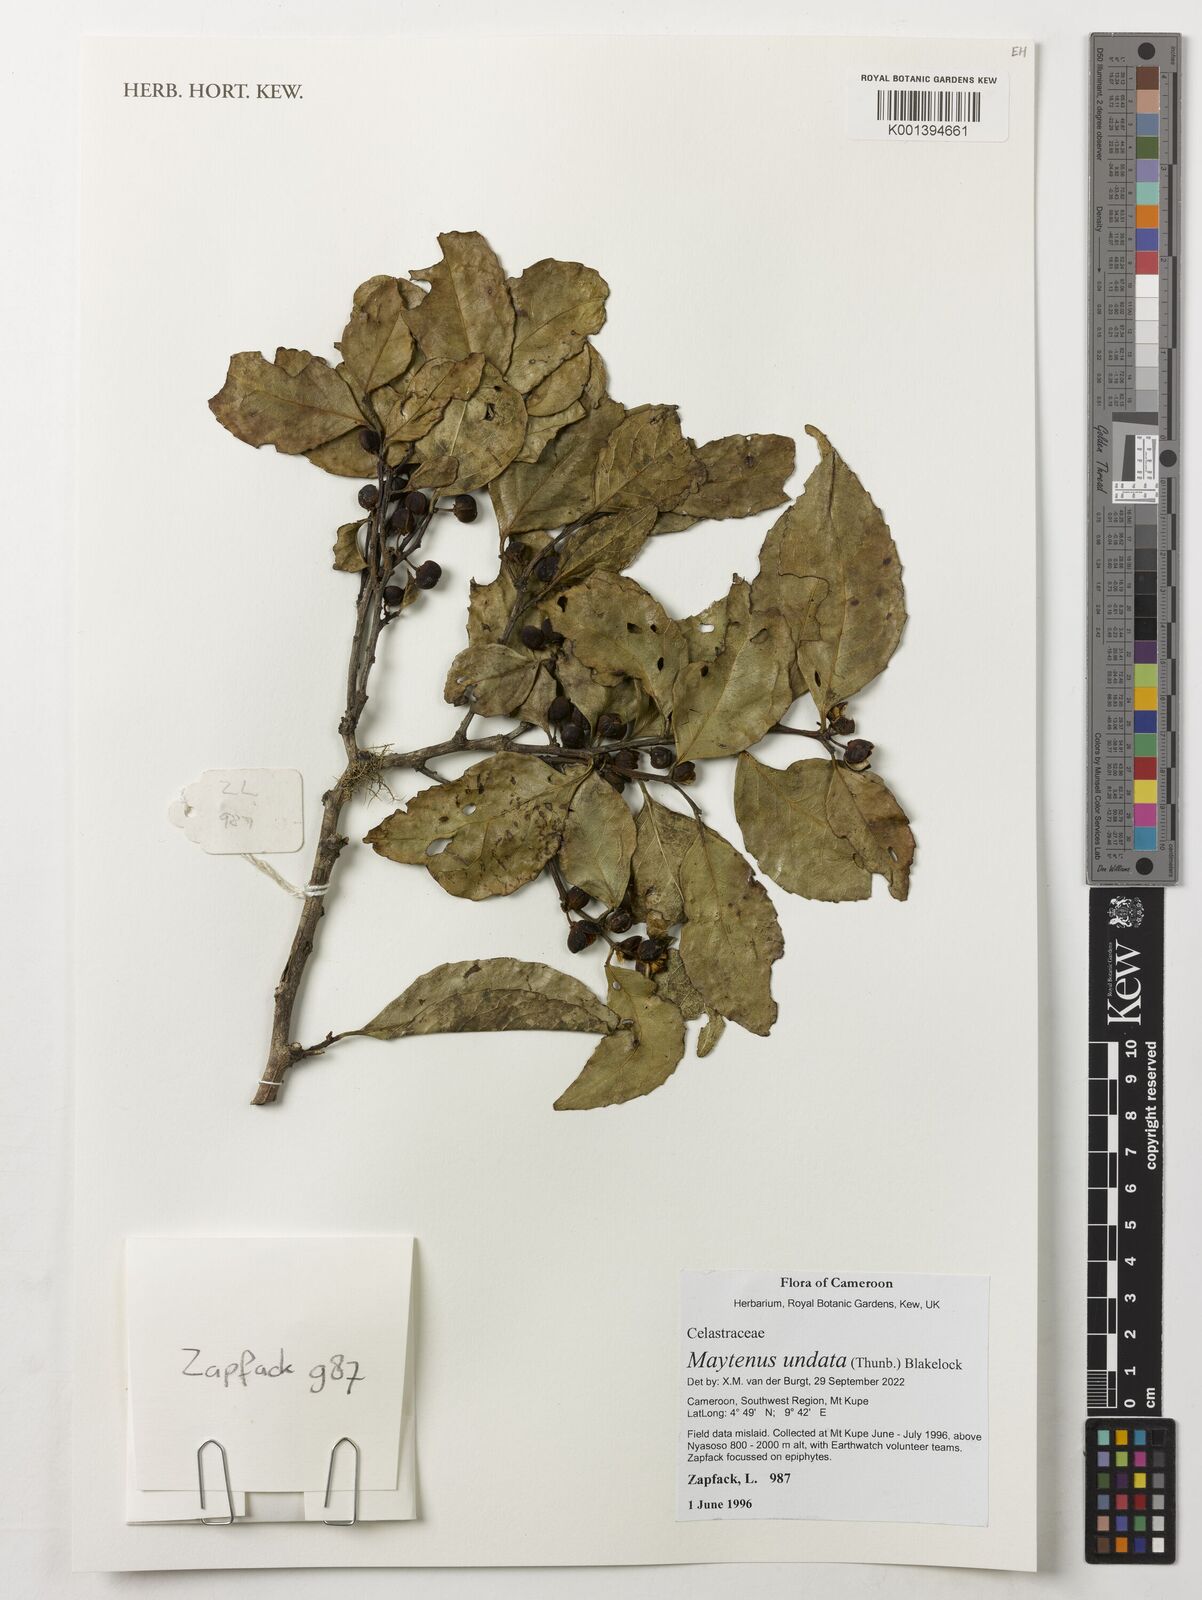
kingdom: Plantae
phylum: Tracheophyta
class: Magnoliopsida
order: Celastrales
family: Celastraceae
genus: Gymnosporia
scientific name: Gymnosporia undata
